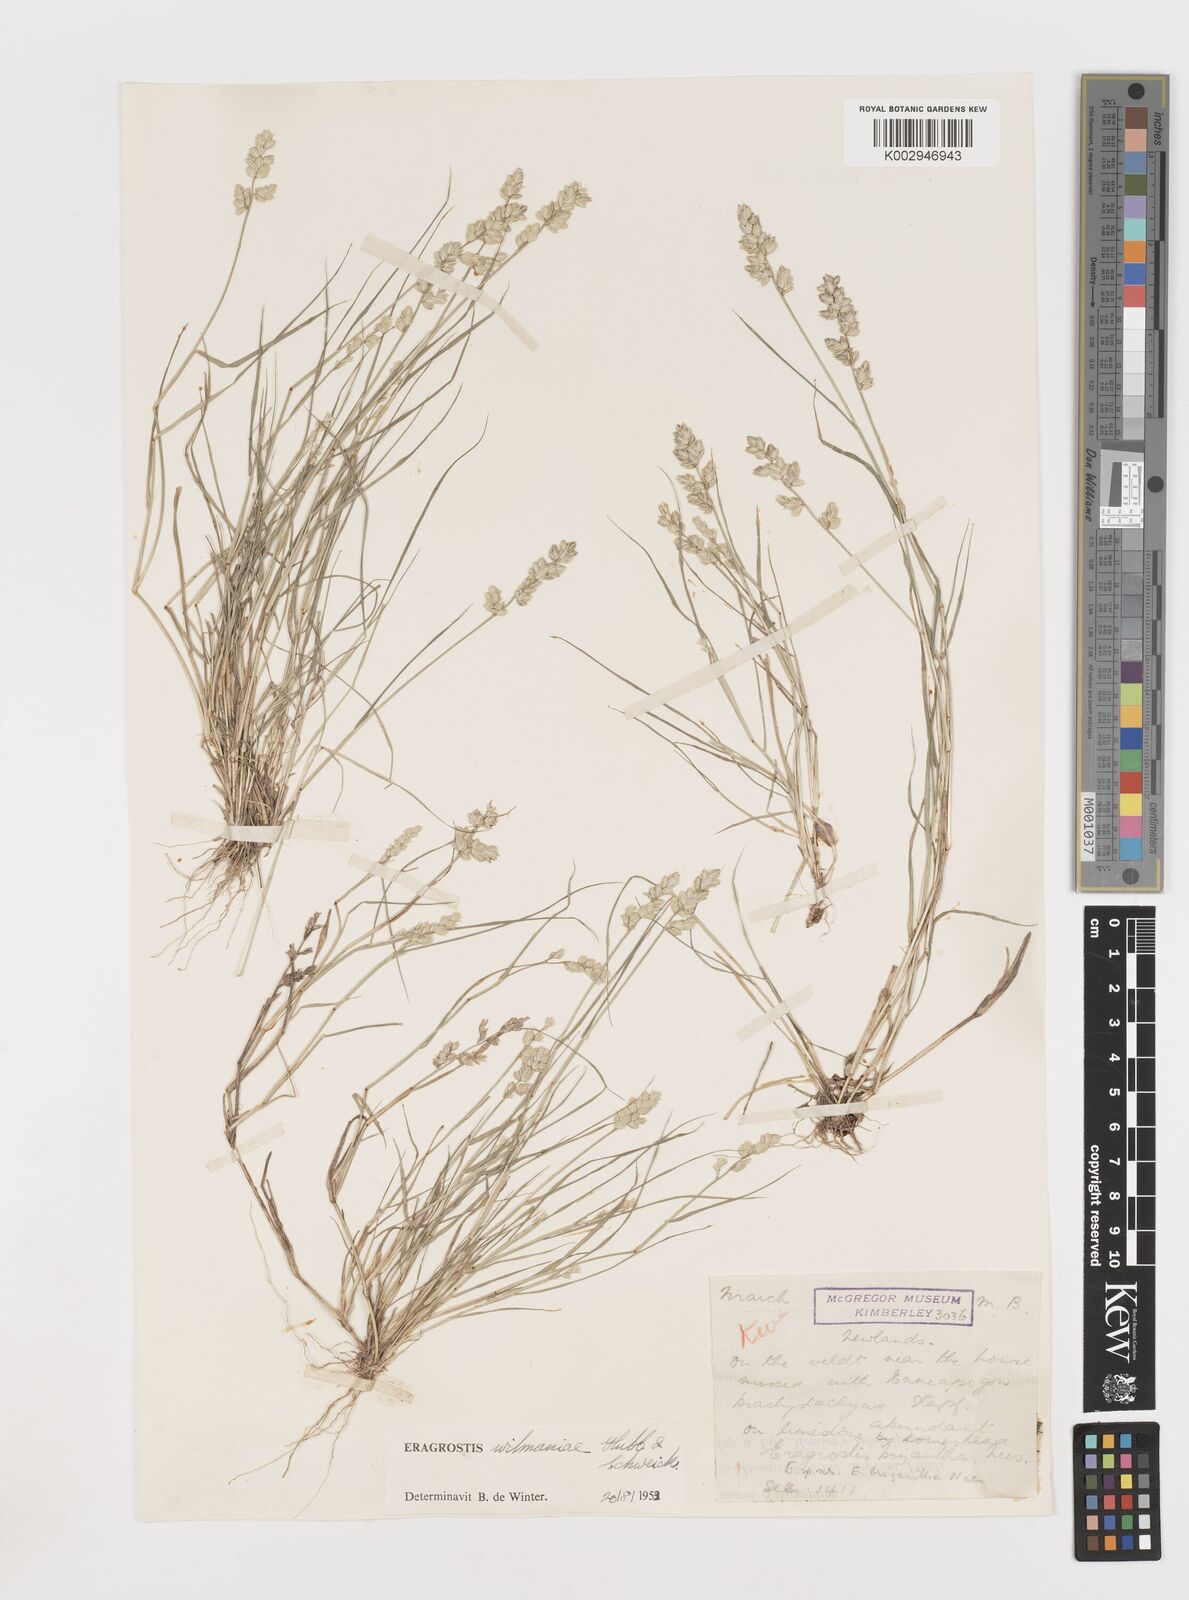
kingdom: Plantae
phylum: Tracheophyta
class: Liliopsida
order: Poales
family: Poaceae
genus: Eragrostis
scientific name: Eragrostis
